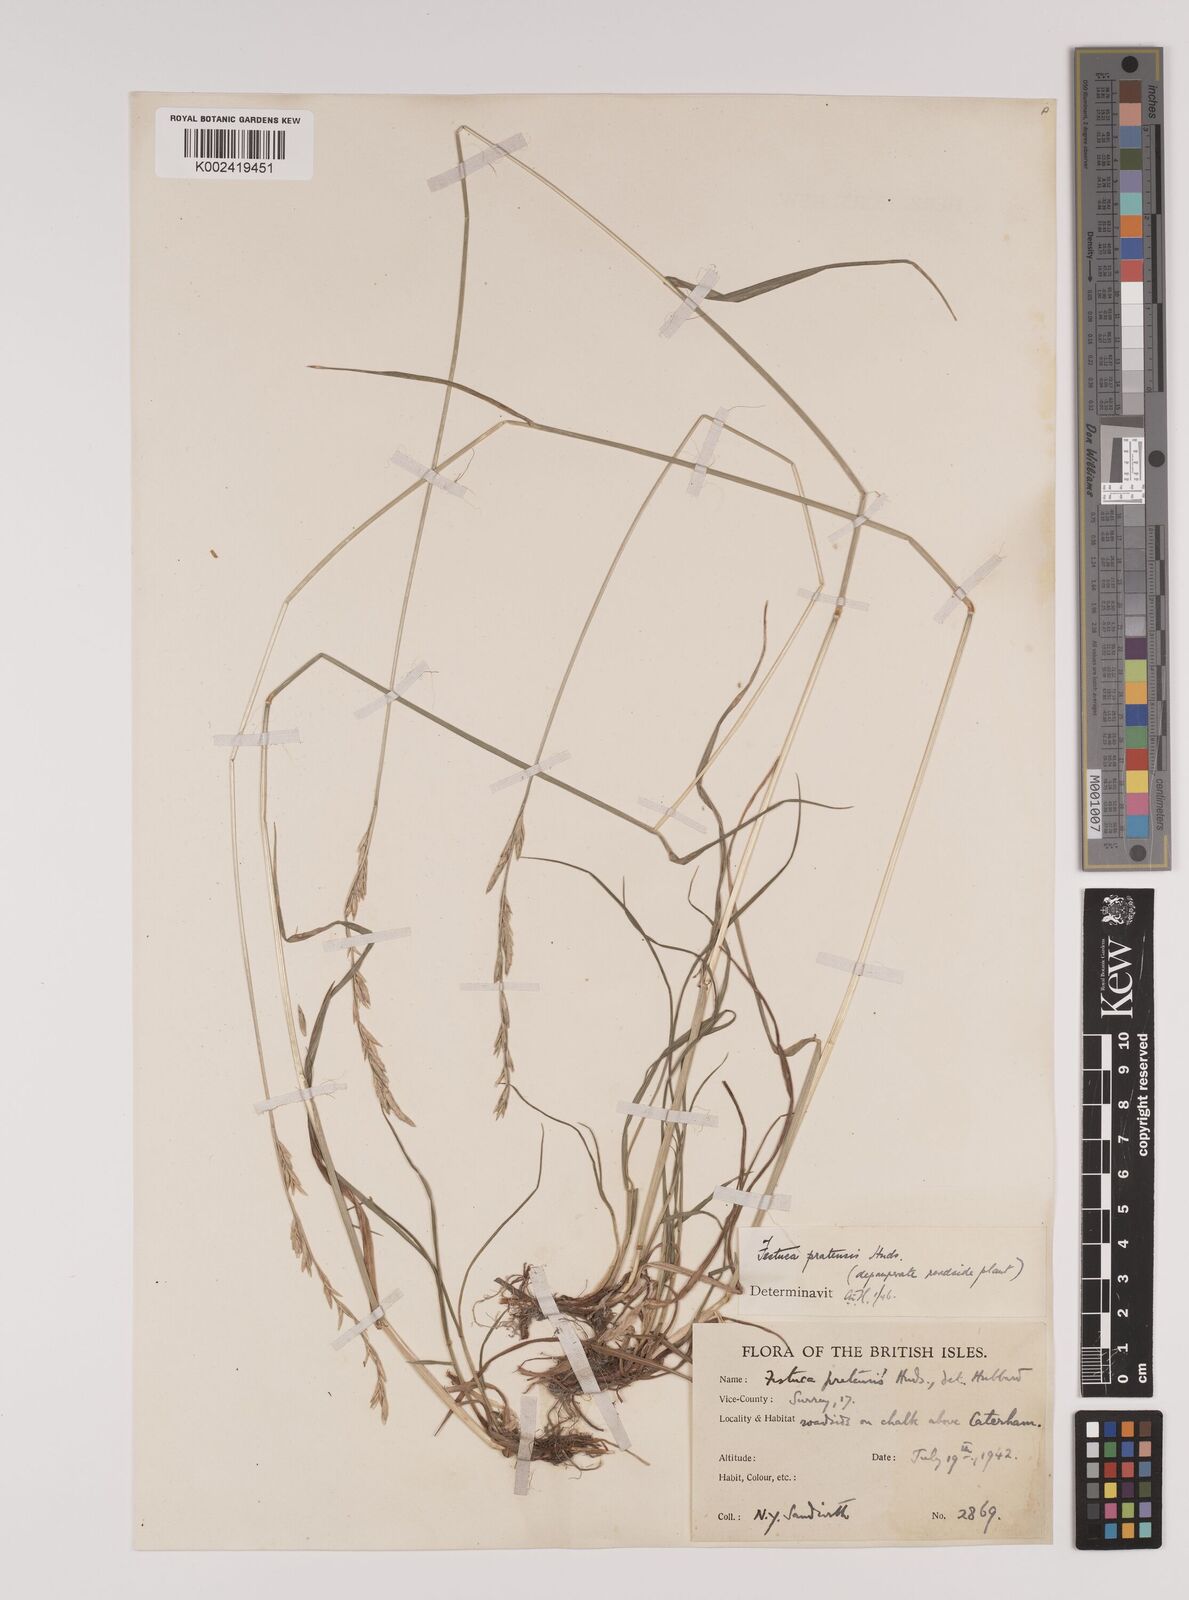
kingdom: Plantae
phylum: Tracheophyta
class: Liliopsida
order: Poales
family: Poaceae
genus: Lolium
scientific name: Lolium pratense
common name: Dover grass
